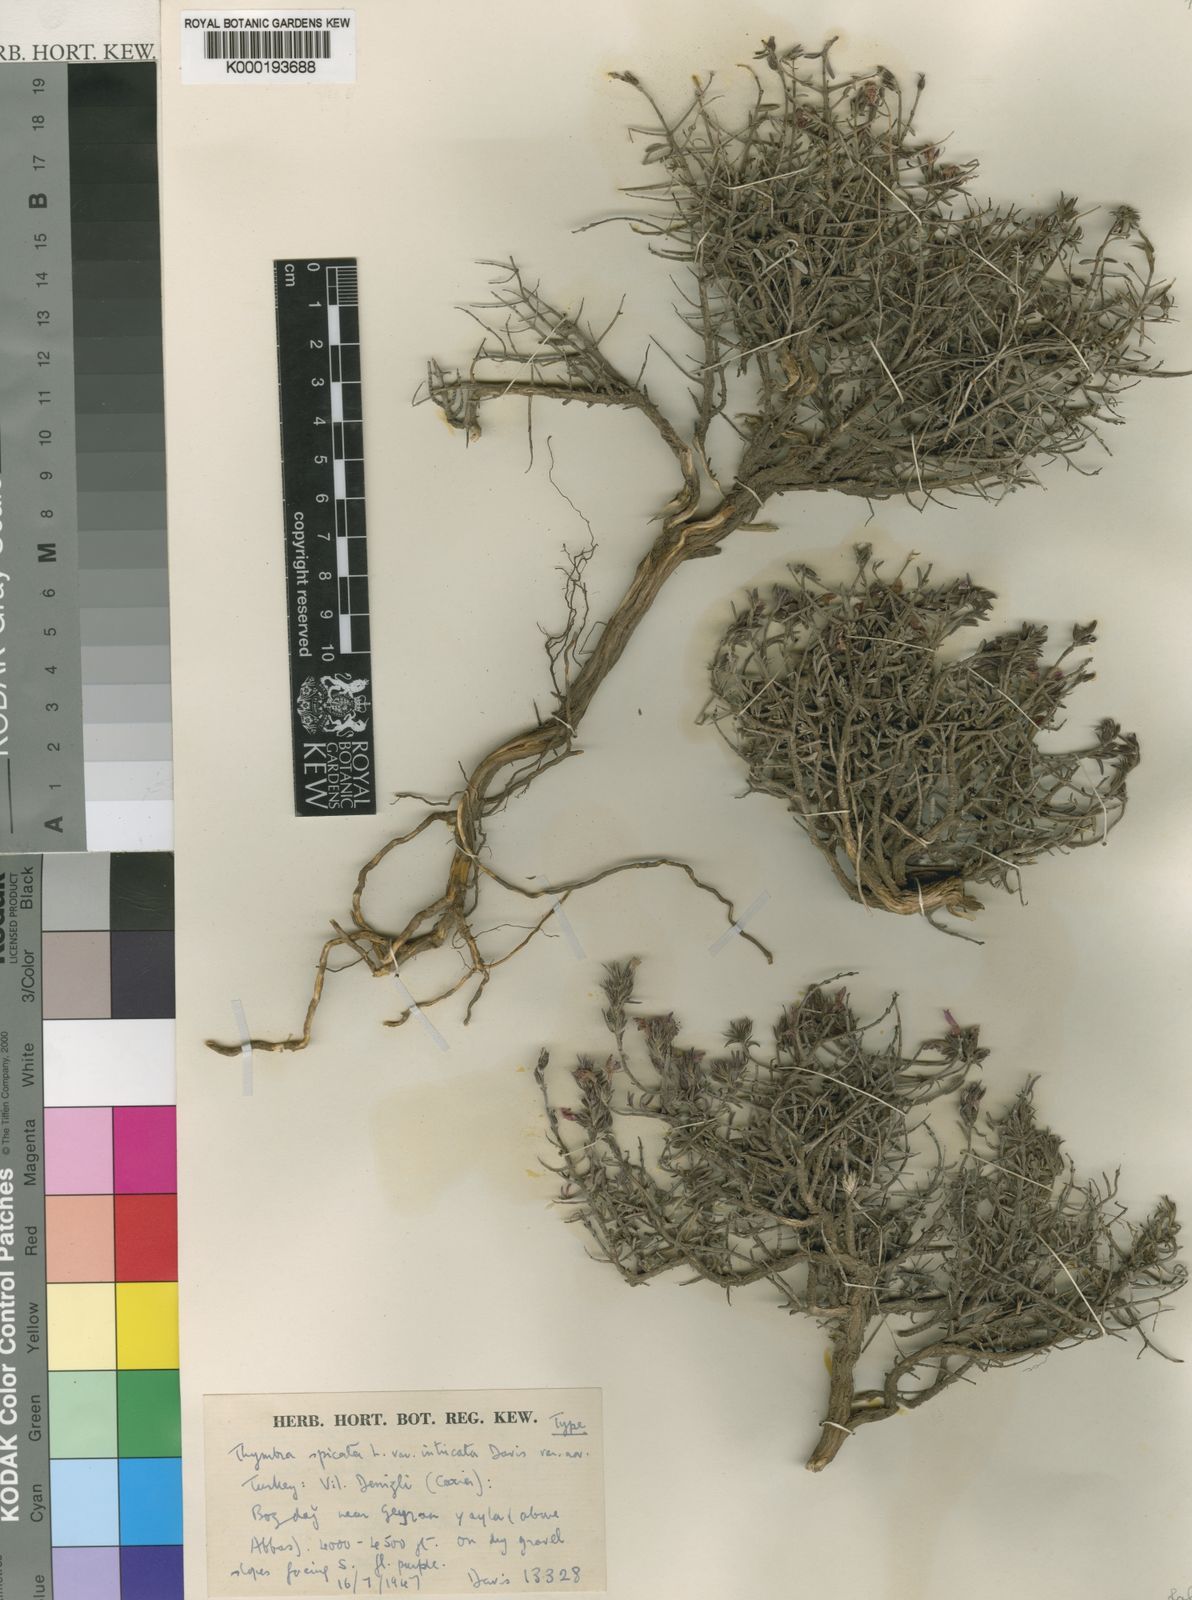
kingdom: Plantae
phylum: Tracheophyta
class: Magnoliopsida
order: Lamiales
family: Lamiaceae
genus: Thymbra
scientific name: Thymbra spicata
